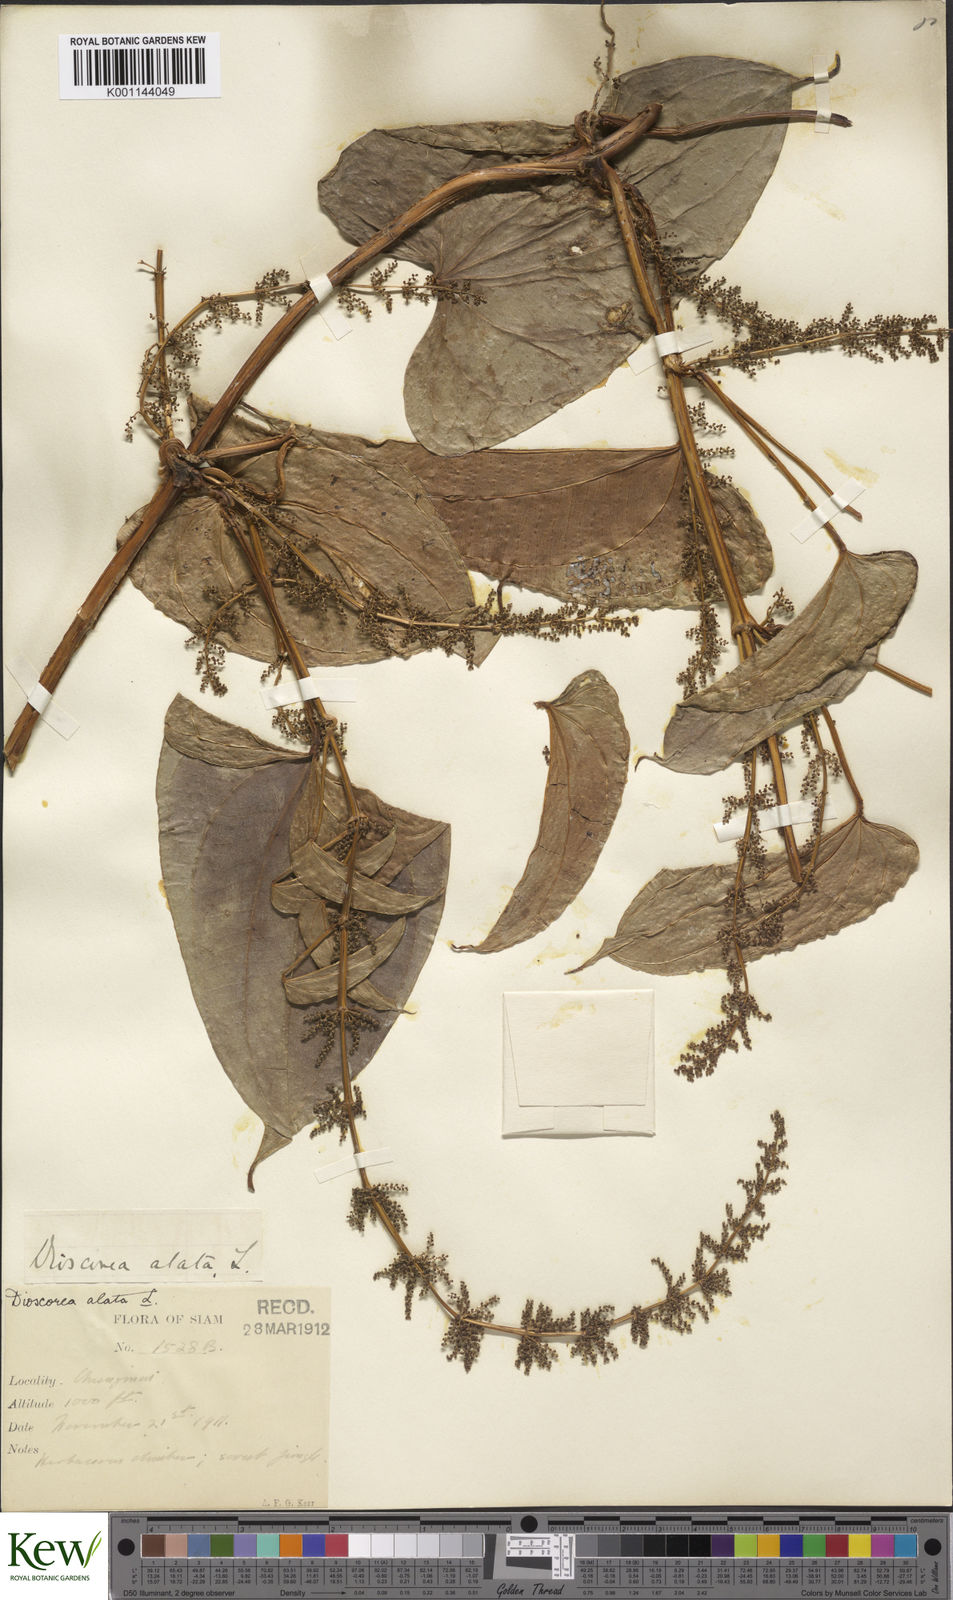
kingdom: Plantae
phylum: Tracheophyta
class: Liliopsida
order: Dioscoreales
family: Dioscoreaceae
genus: Dioscorea
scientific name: Dioscorea alata
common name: Water yam
